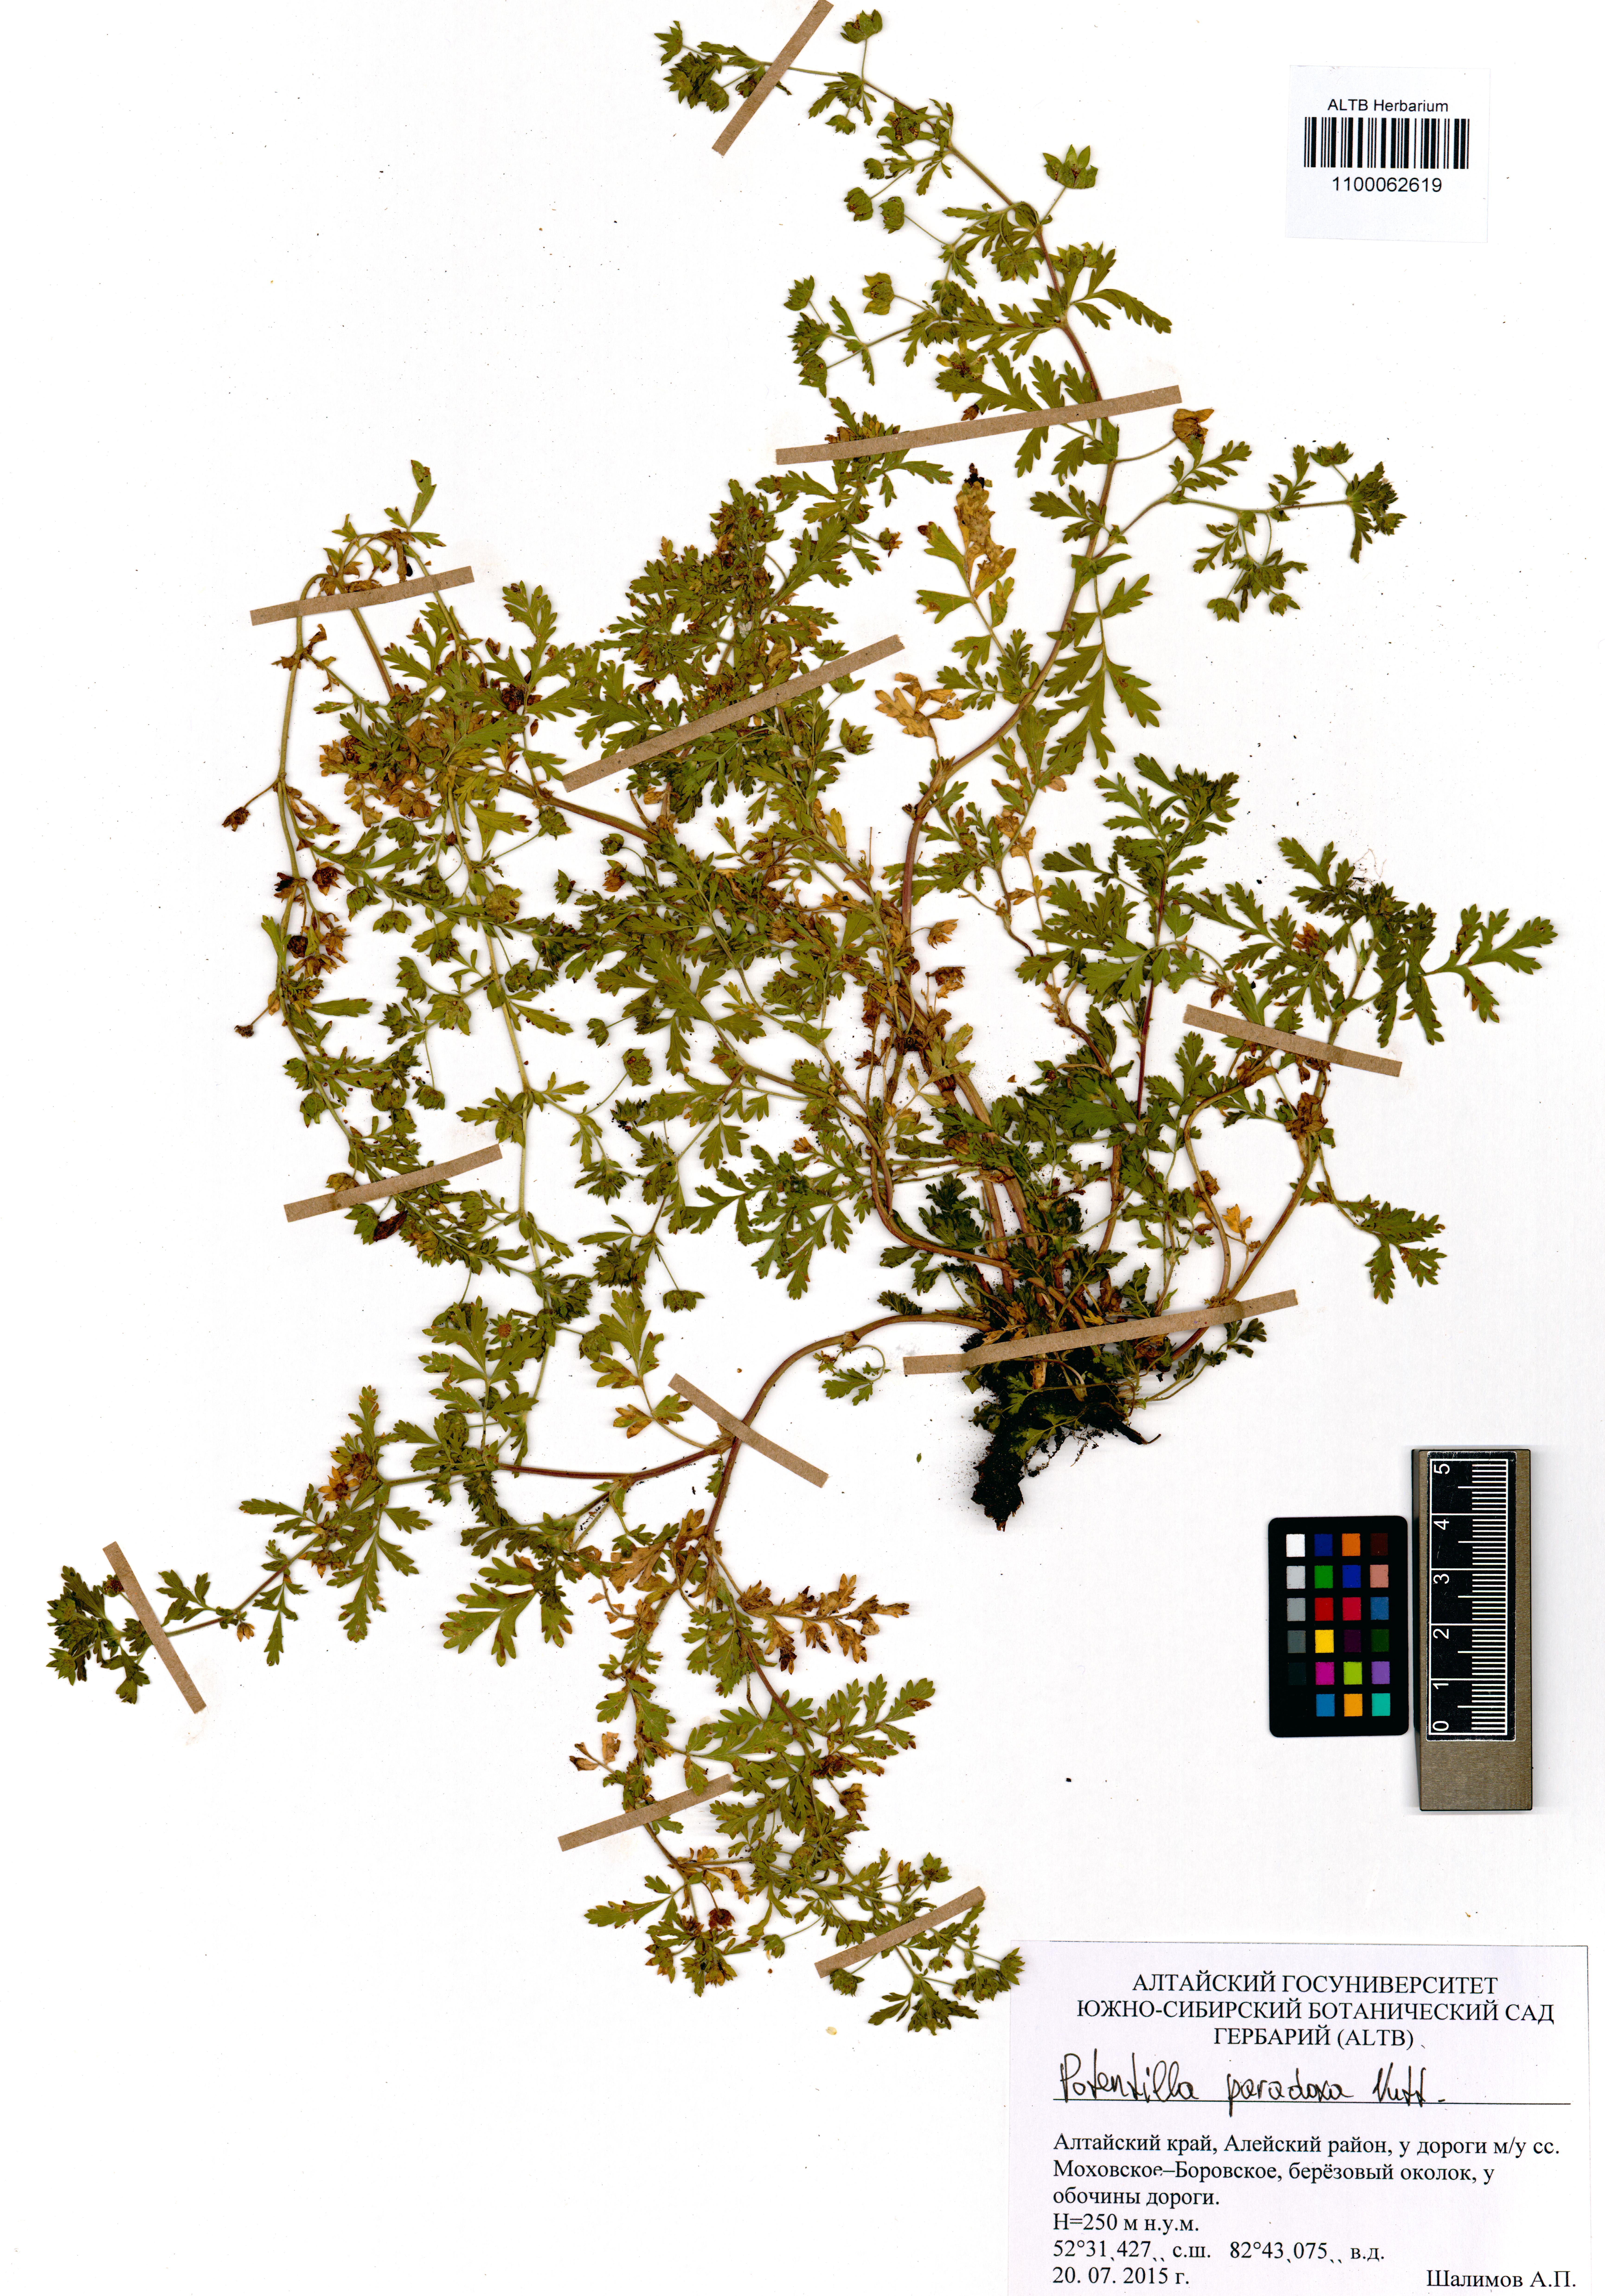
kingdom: Plantae
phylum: Tracheophyta
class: Magnoliopsida
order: Rosales
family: Rosaceae
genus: Potentilla
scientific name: Potentilla supina
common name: Prostrate cinquefoil
